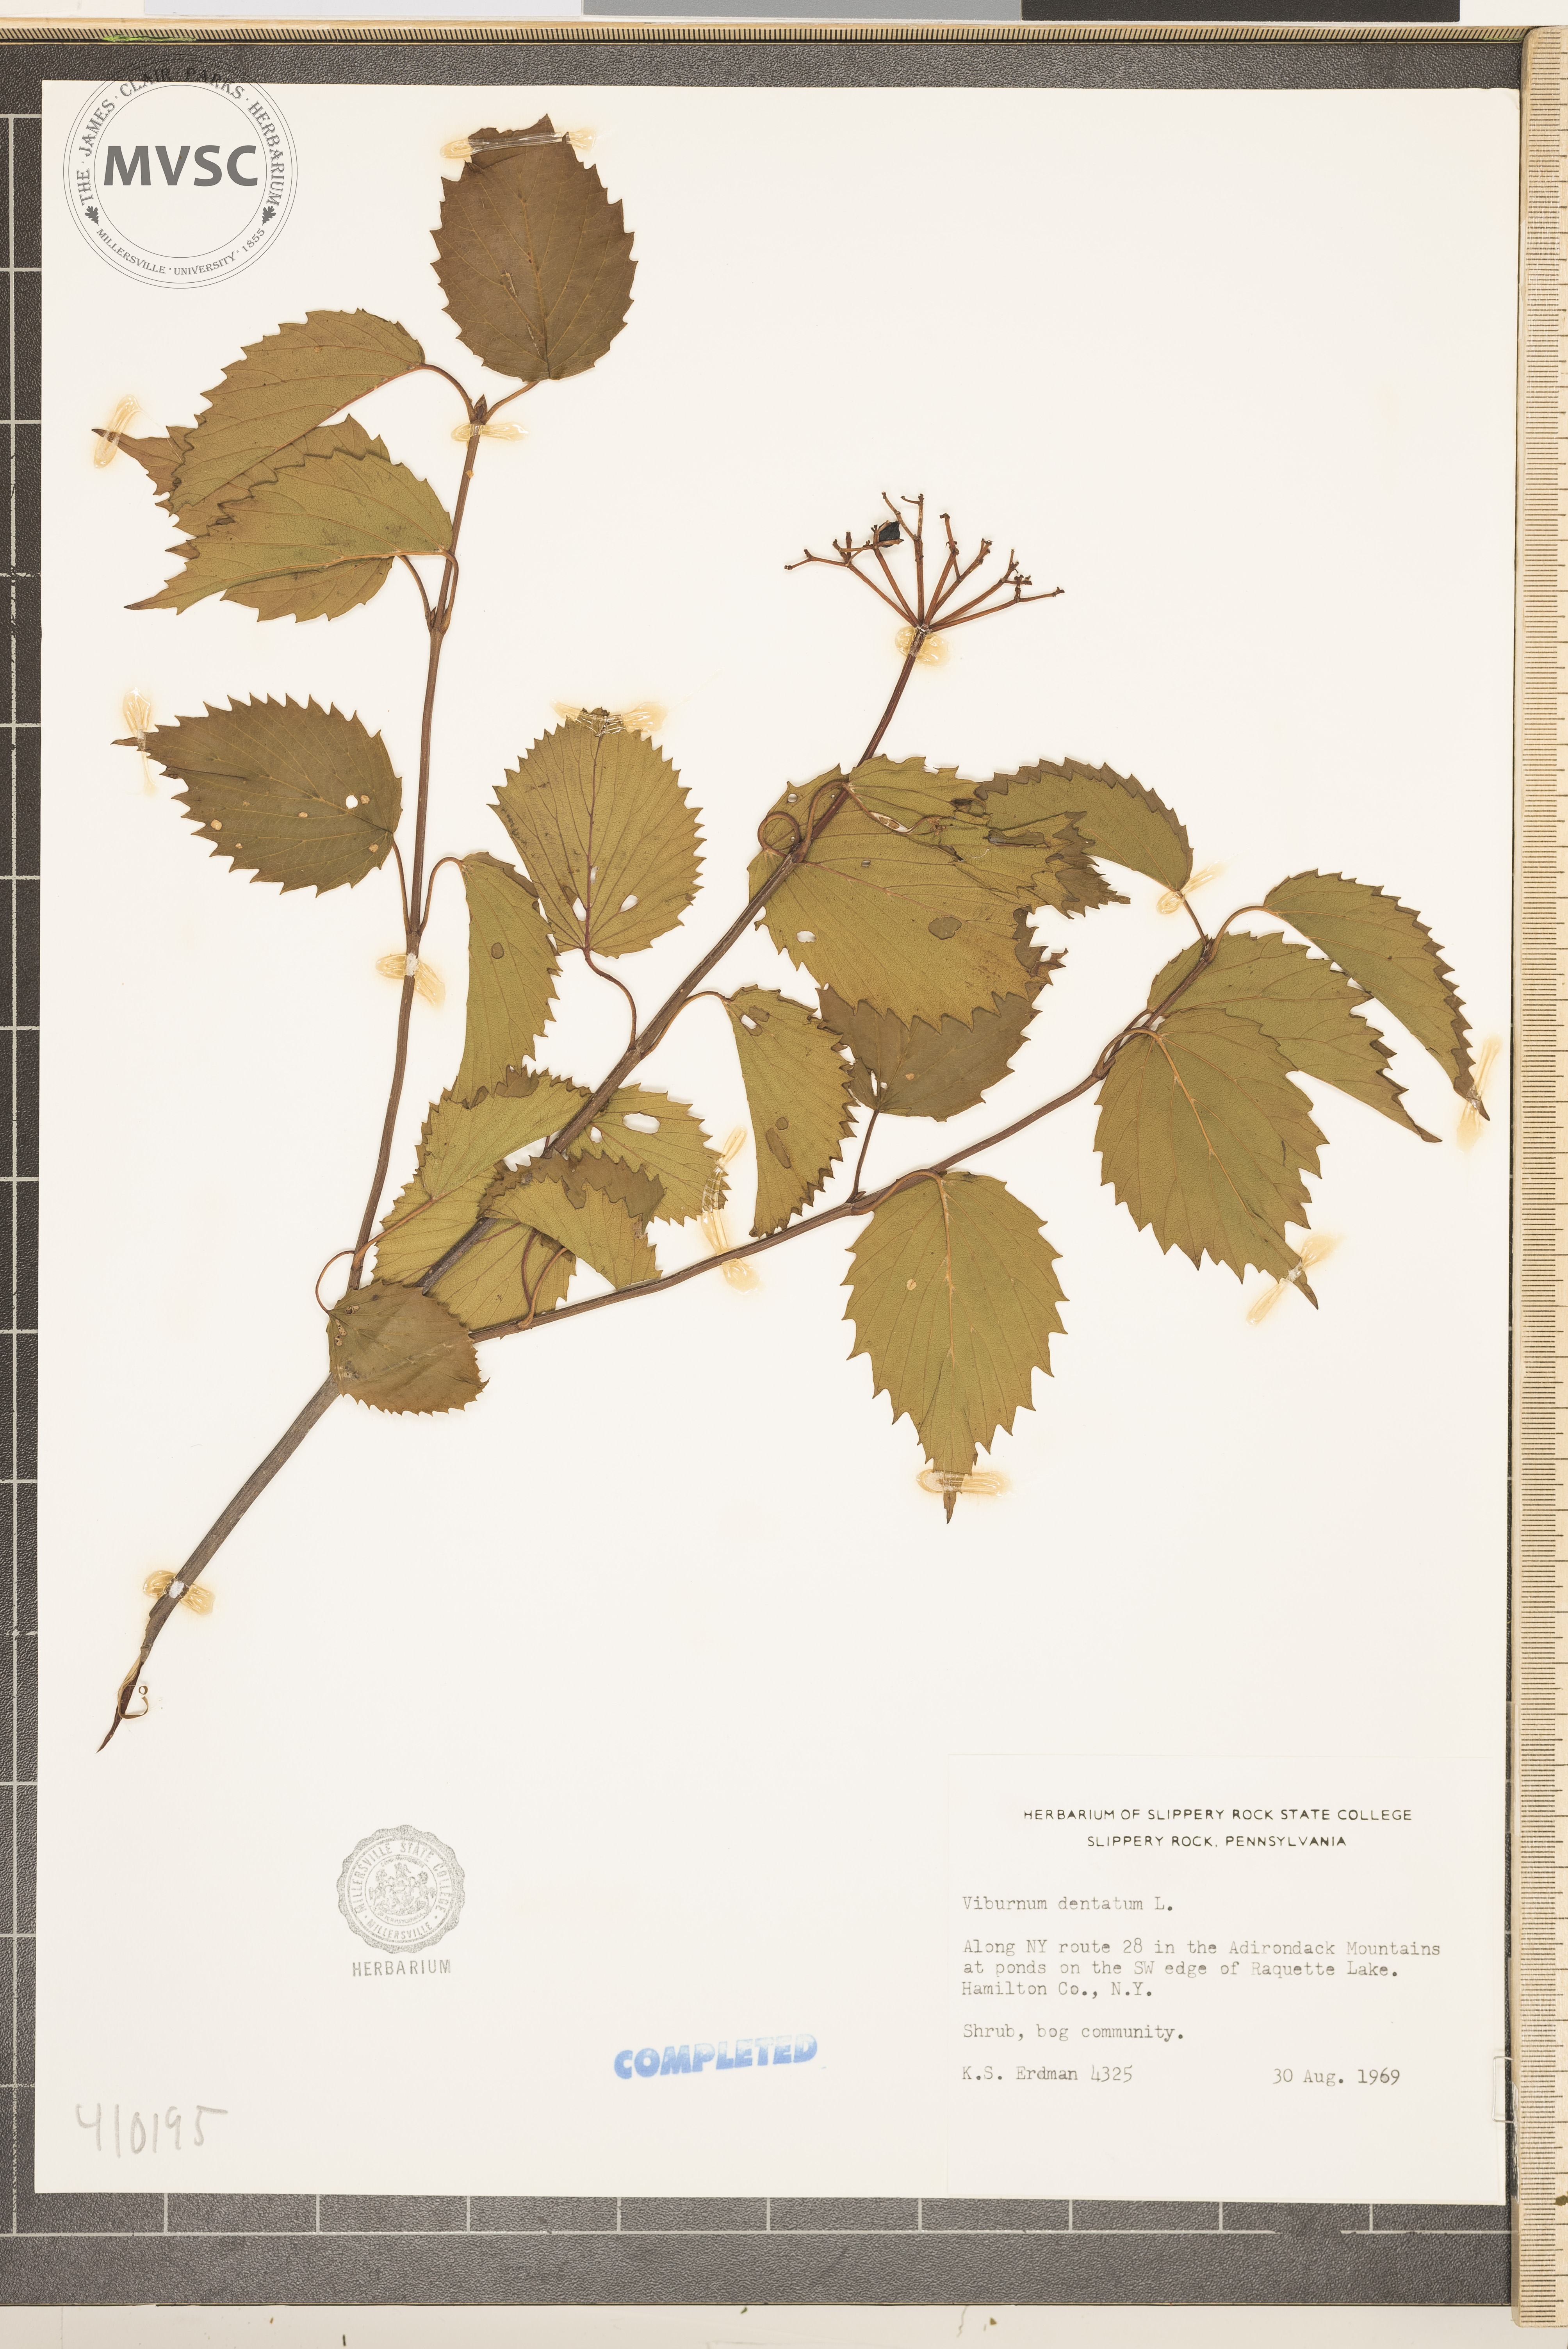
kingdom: Plantae
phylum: Tracheophyta
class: Magnoliopsida
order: Dipsacales
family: Viburnaceae
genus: Viburnum
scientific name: Viburnum dentatum
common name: Arrow-wood
